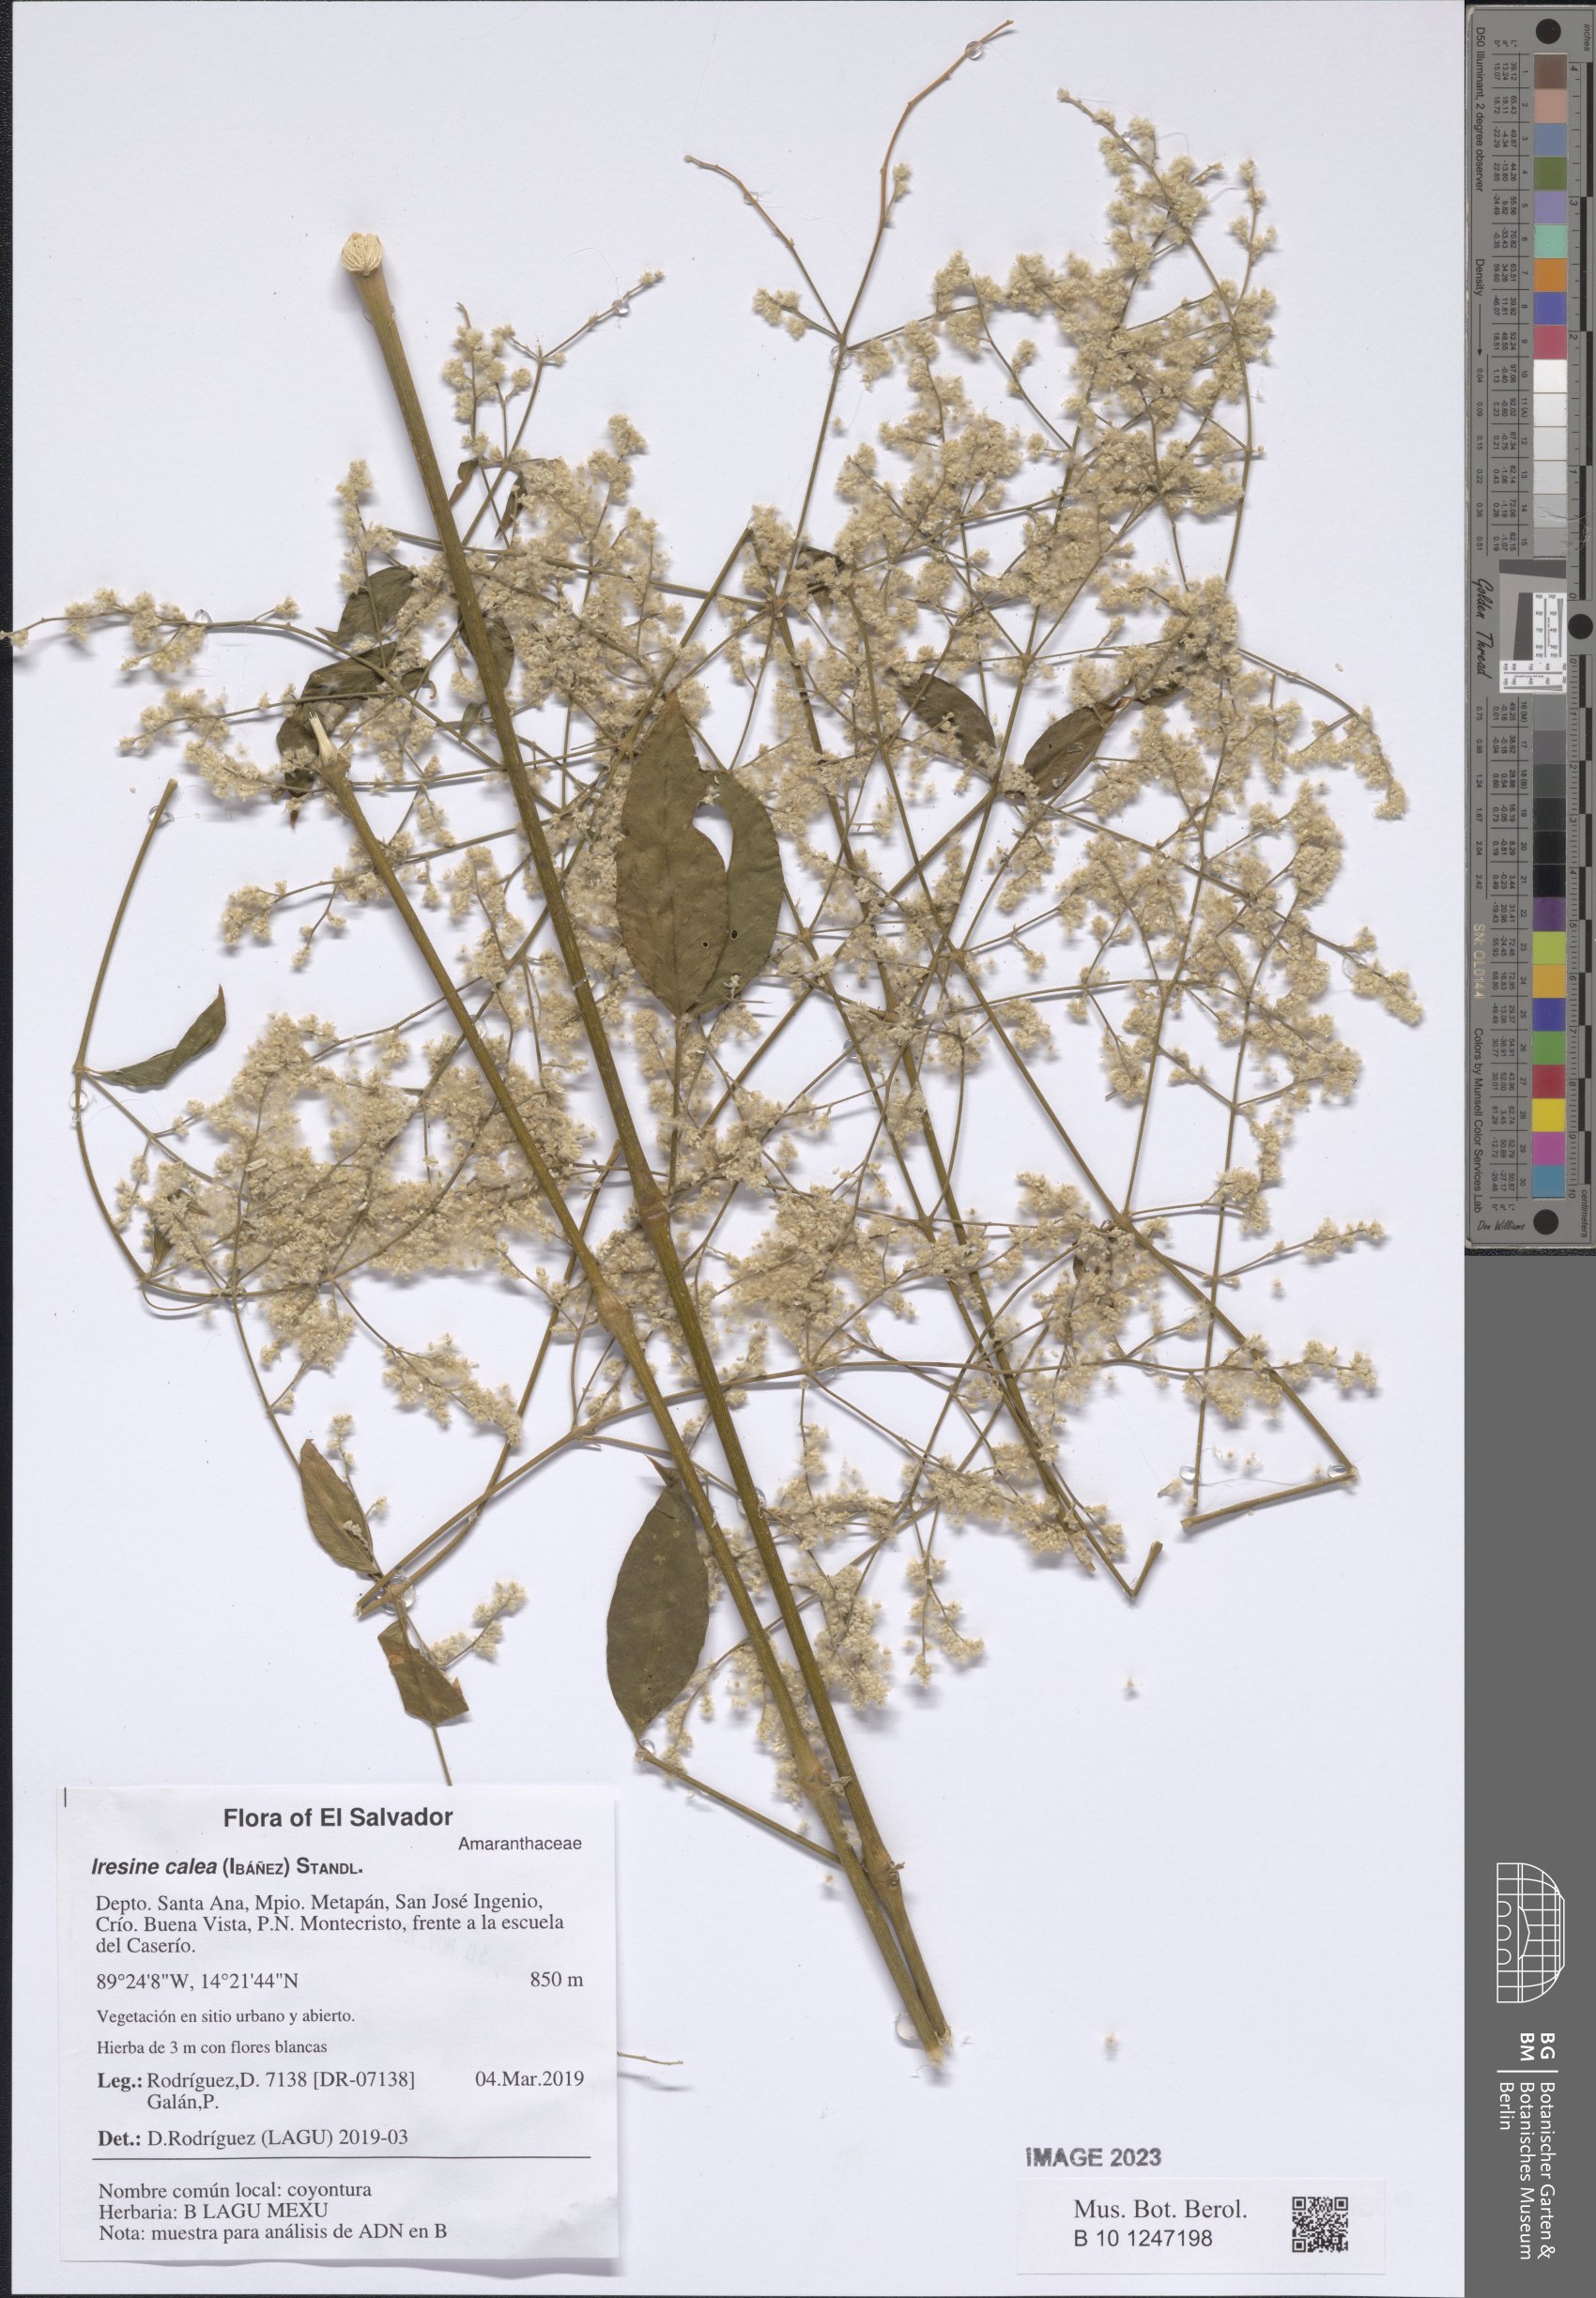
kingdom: Plantae
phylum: Tracheophyta
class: Magnoliopsida
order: Caryophyllales
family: Amaranthaceae
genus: Iresine
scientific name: Iresine latifolia
